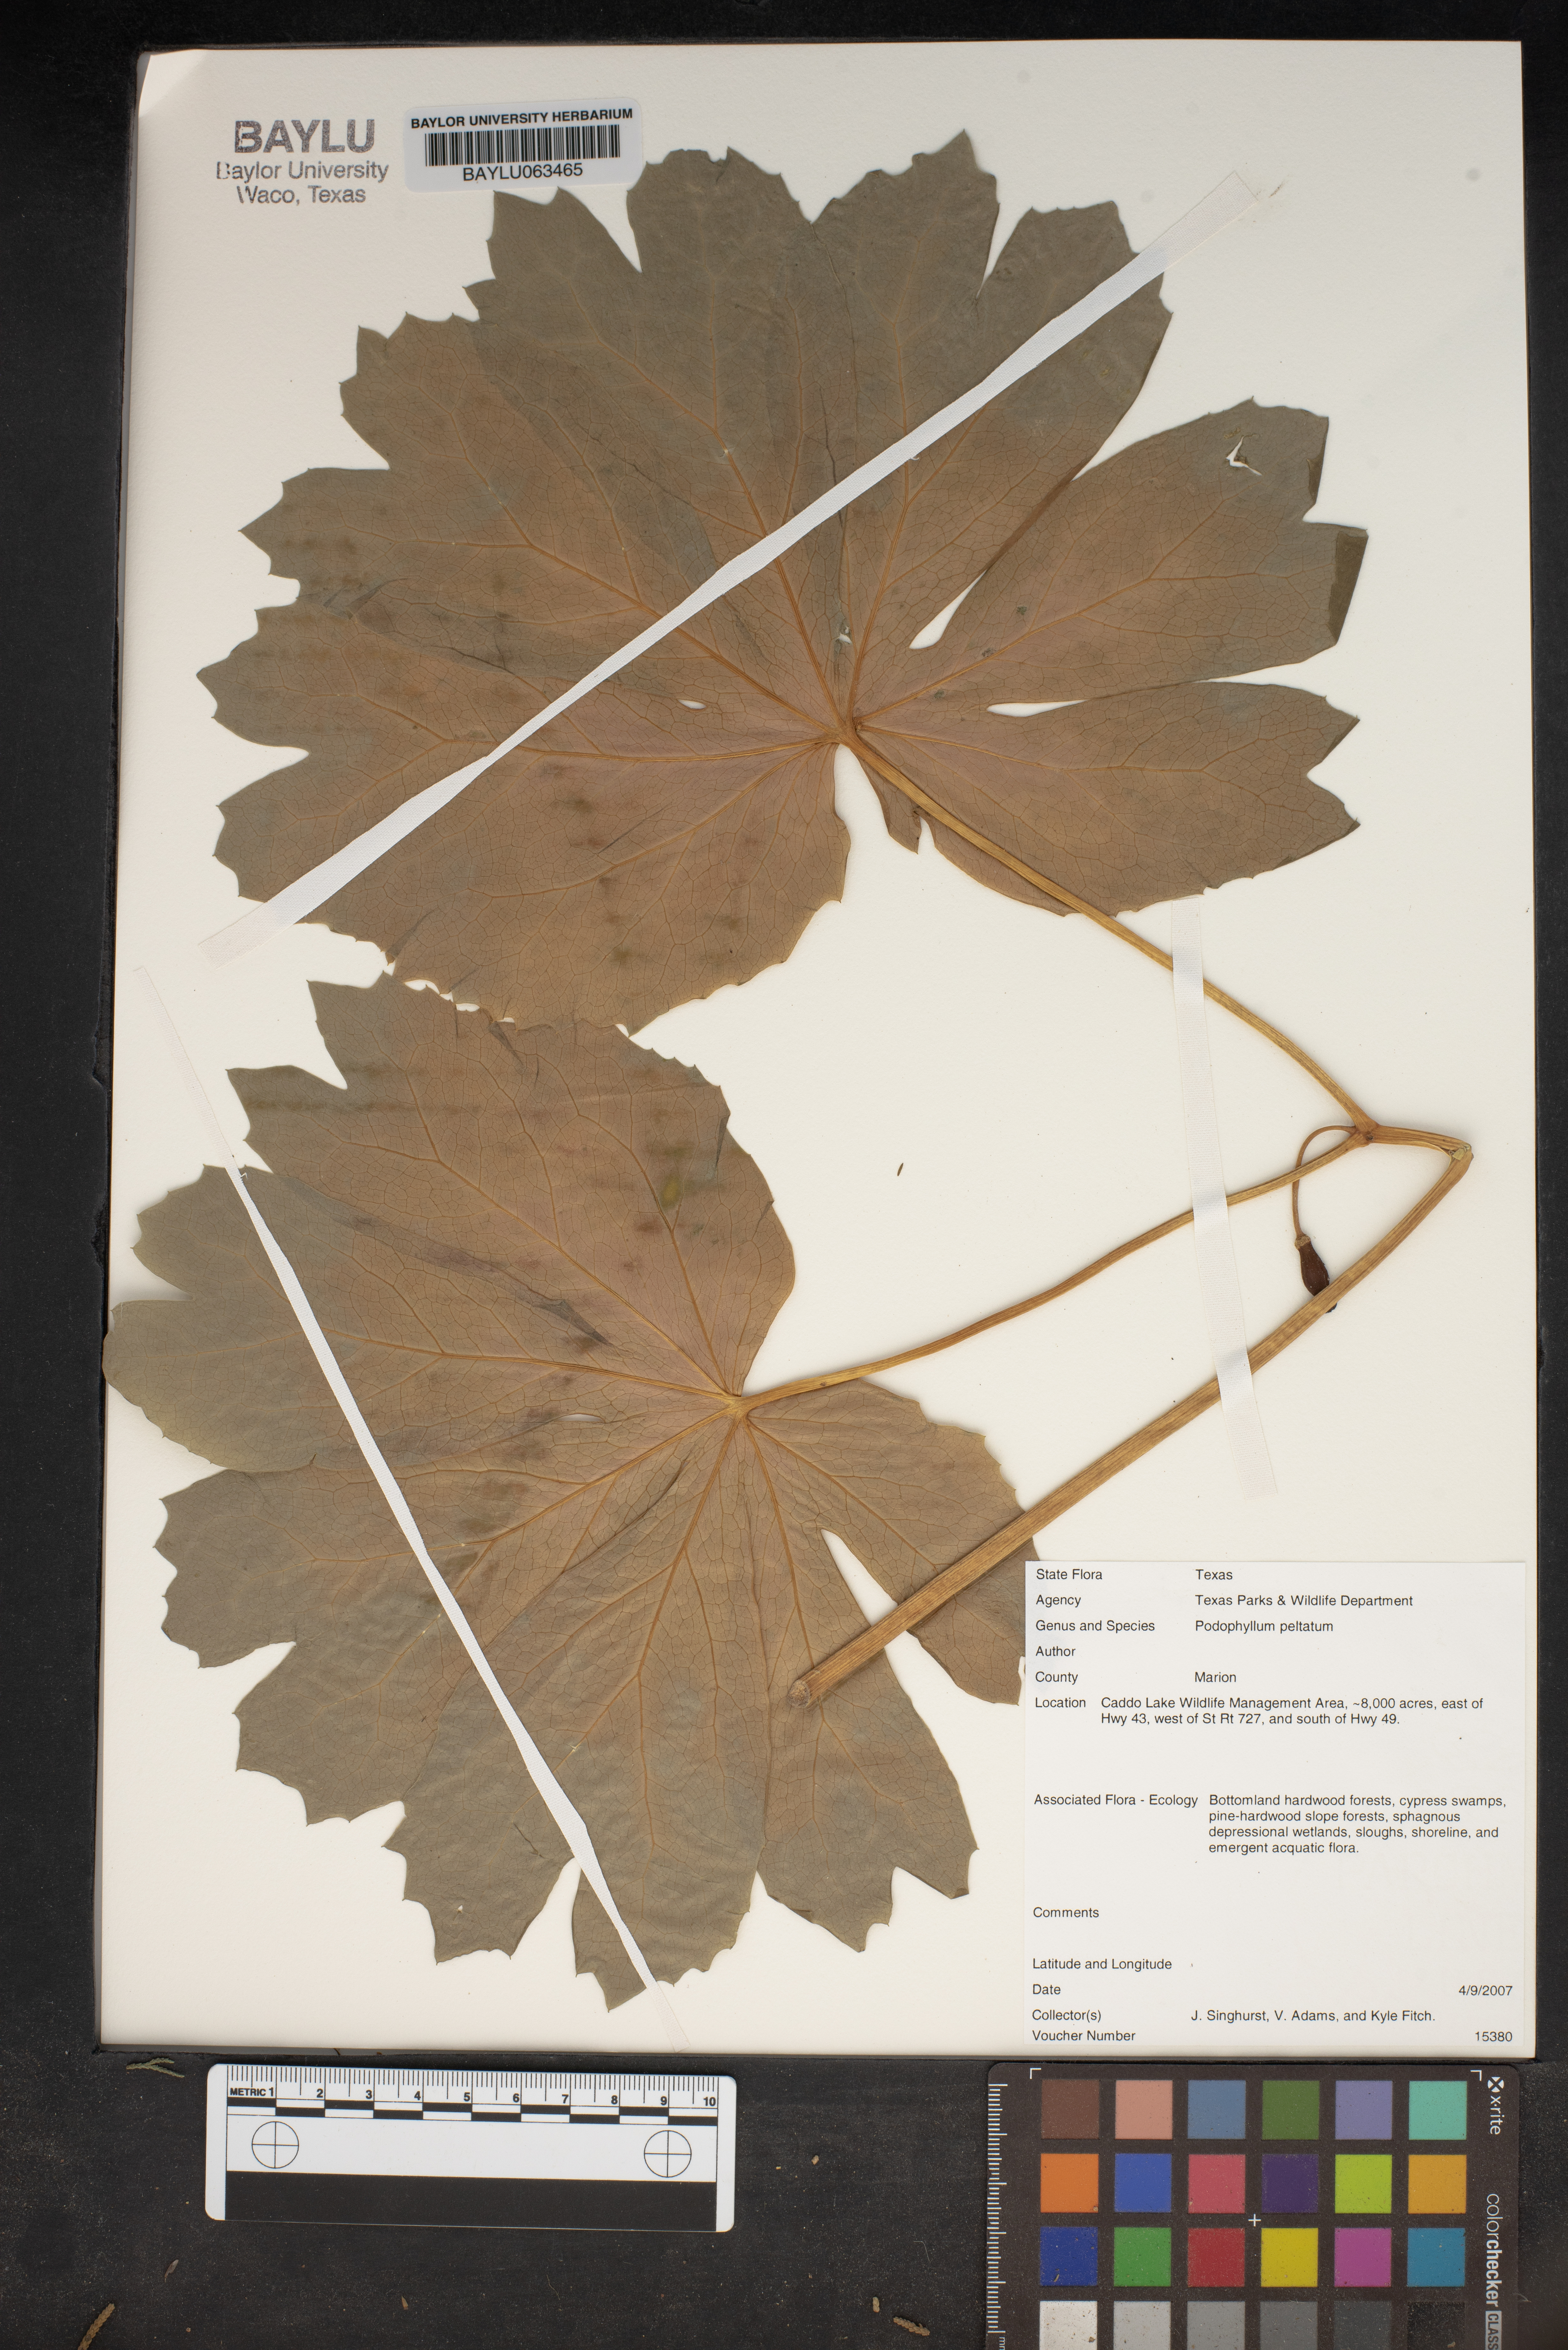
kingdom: Plantae
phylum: Tracheophyta
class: Magnoliopsida
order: Ranunculales
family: Berberidaceae
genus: Podophyllum
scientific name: Podophyllum peltatum
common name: Wild mandrake
